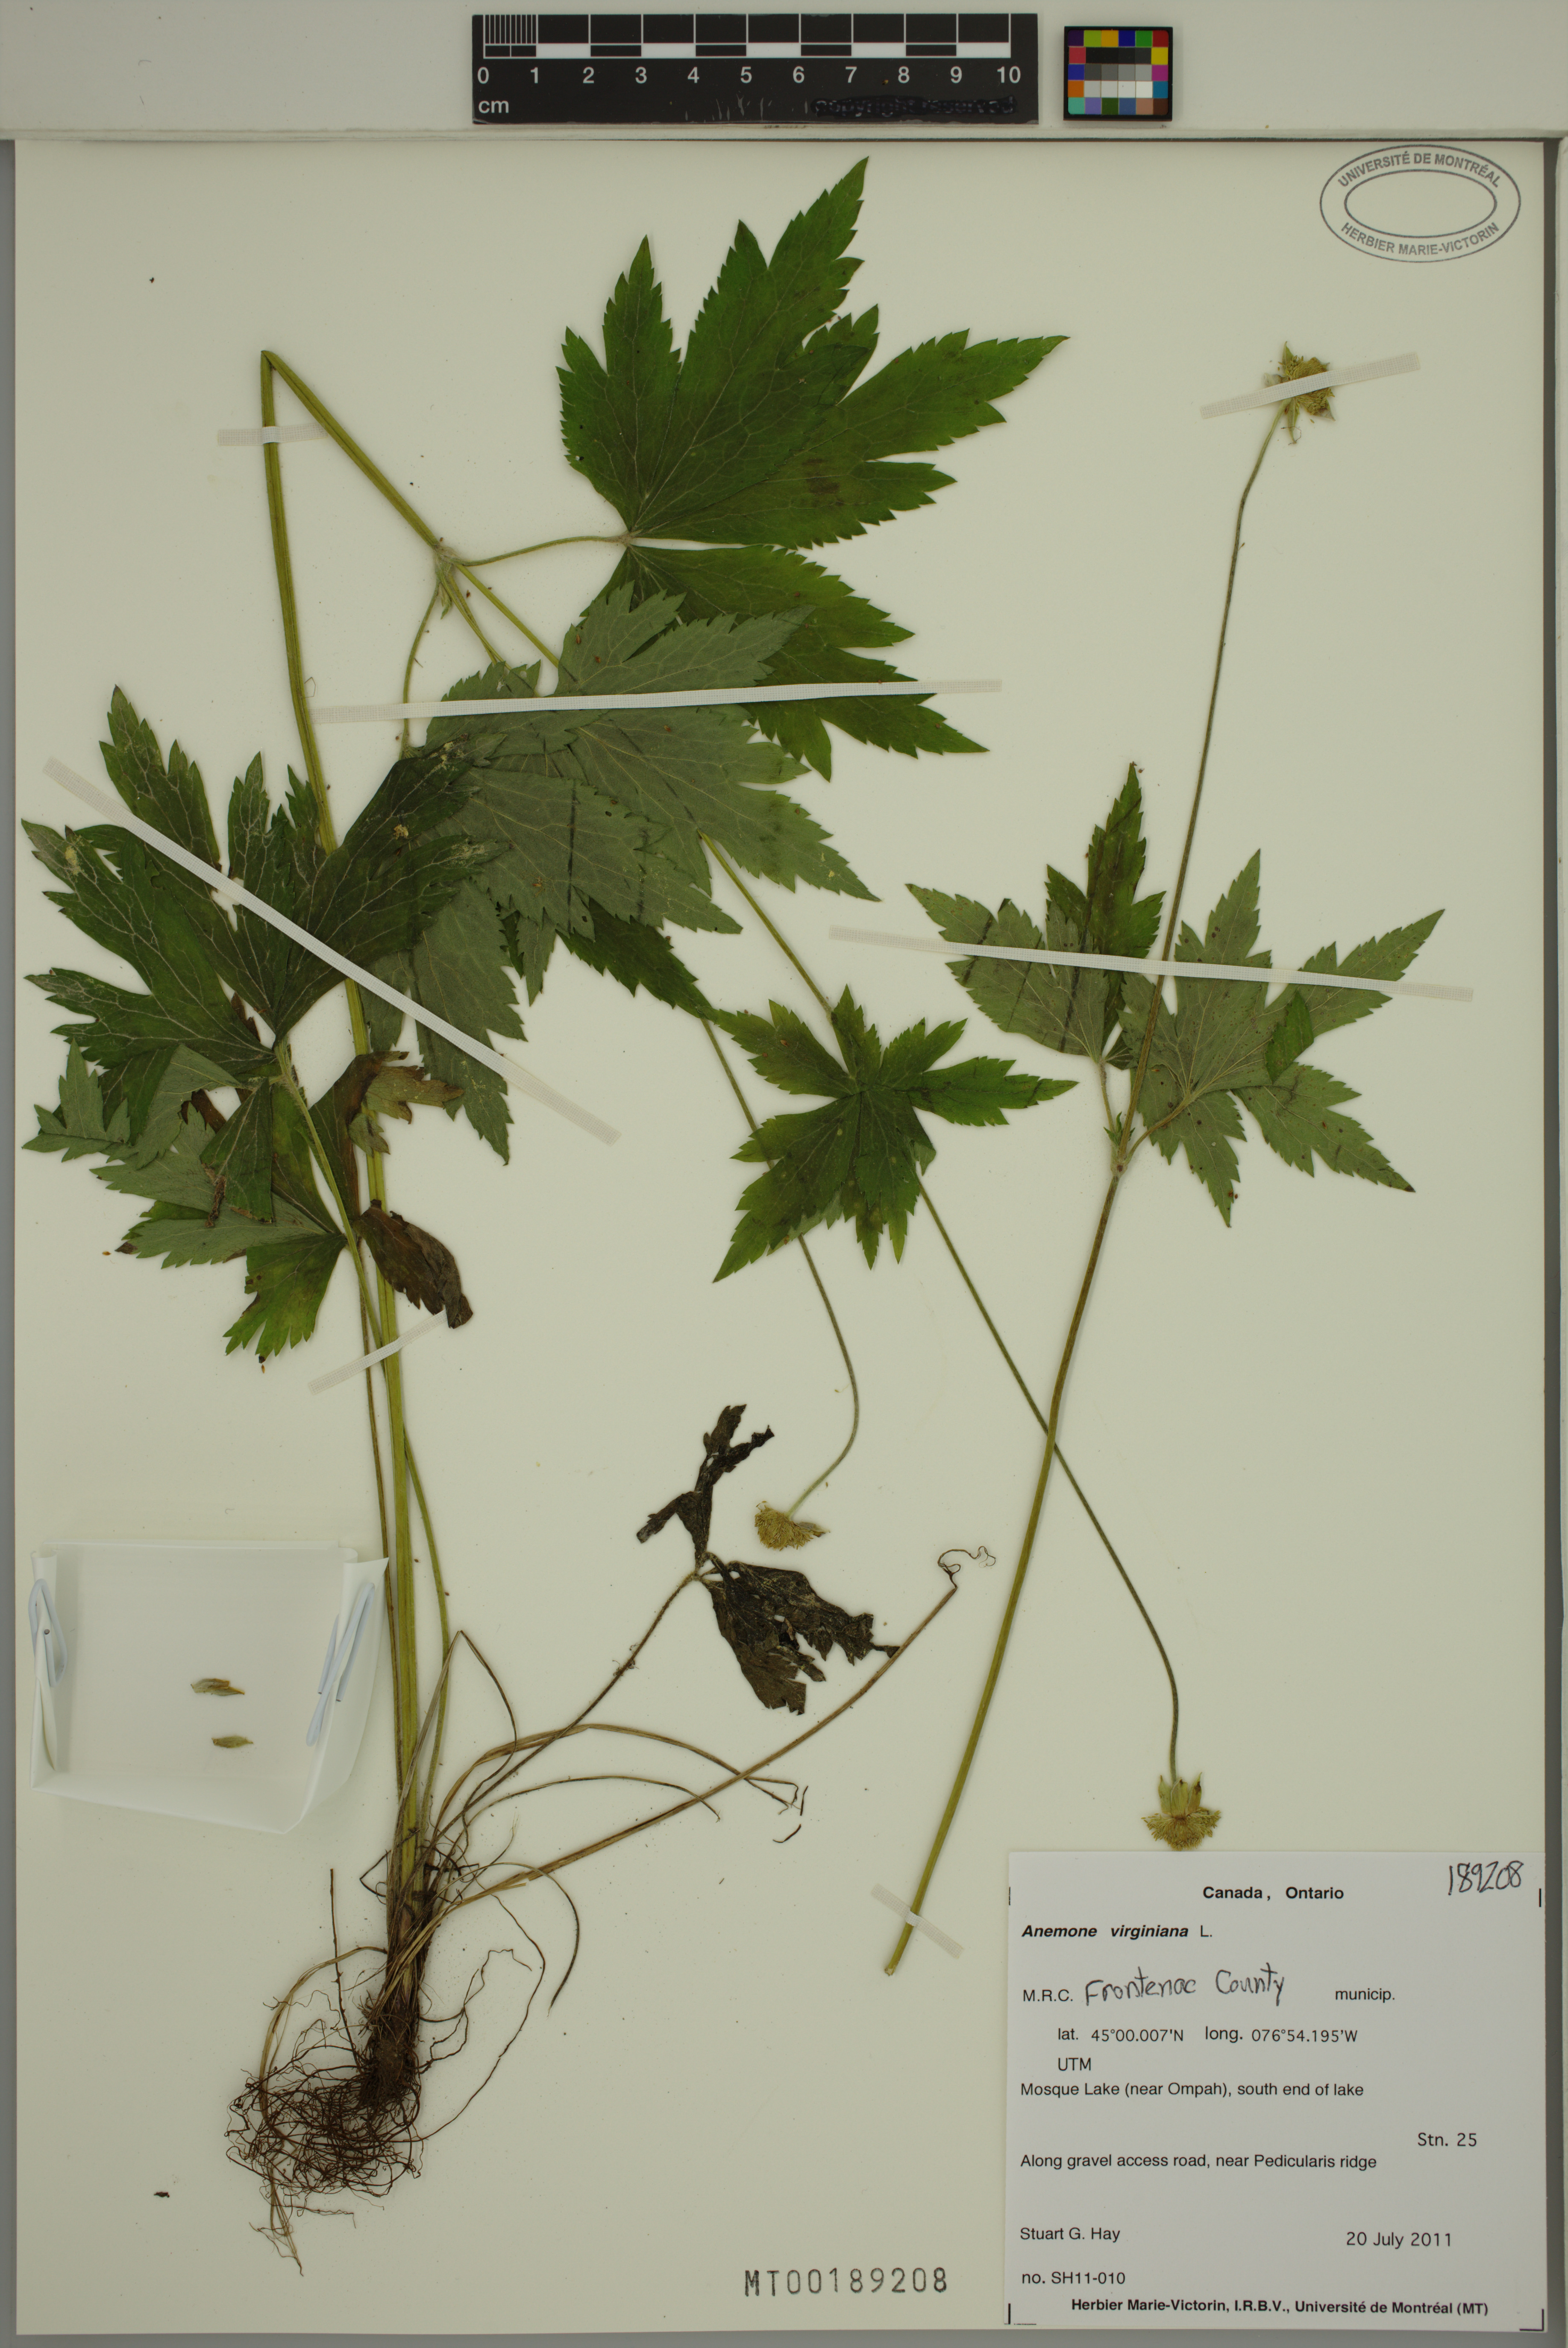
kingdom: Plantae
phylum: Tracheophyta
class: Magnoliopsida
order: Ranunculales
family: Ranunculaceae
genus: Anemone
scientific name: Anemone virginiana
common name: Tall anemone
